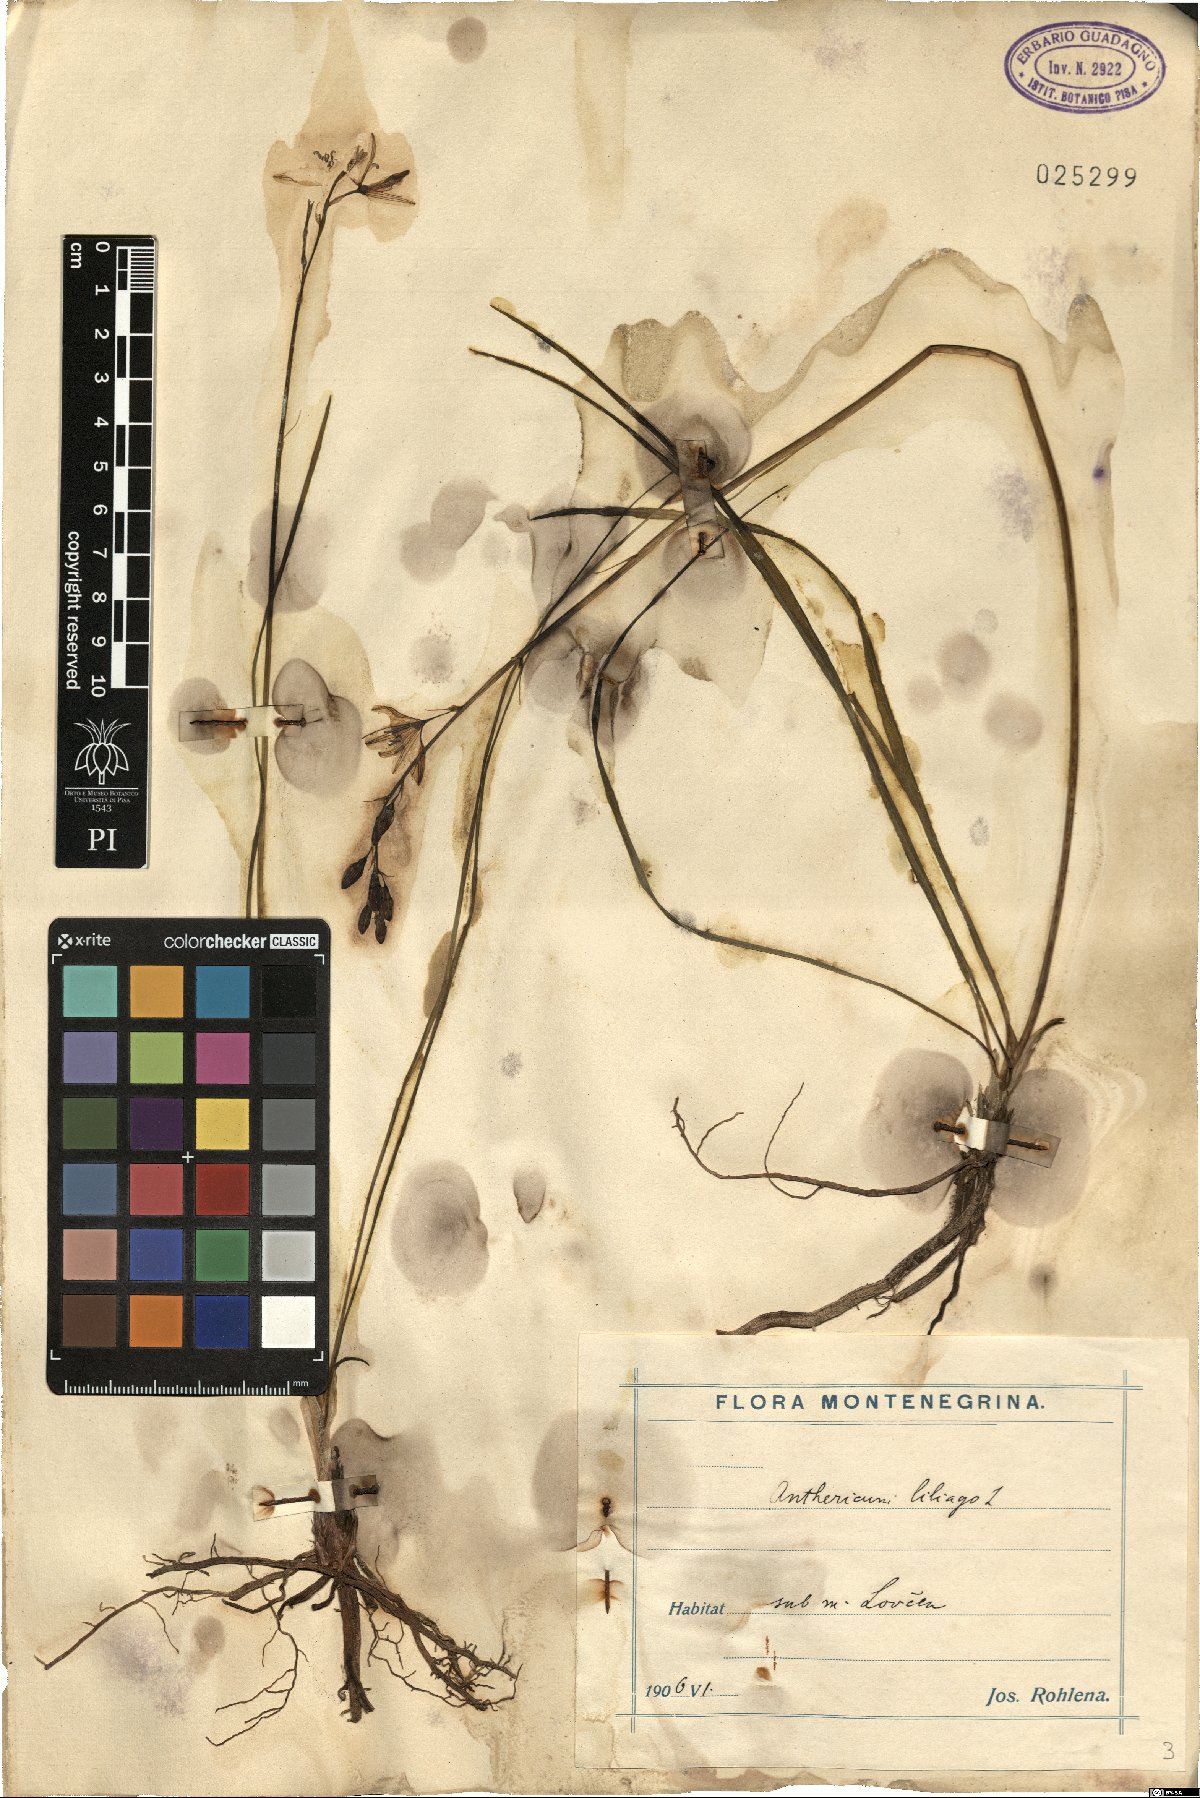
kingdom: Plantae
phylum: Tracheophyta
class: Liliopsida
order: Asparagales
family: Asparagaceae
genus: Anthericum
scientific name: Anthericum liliago
